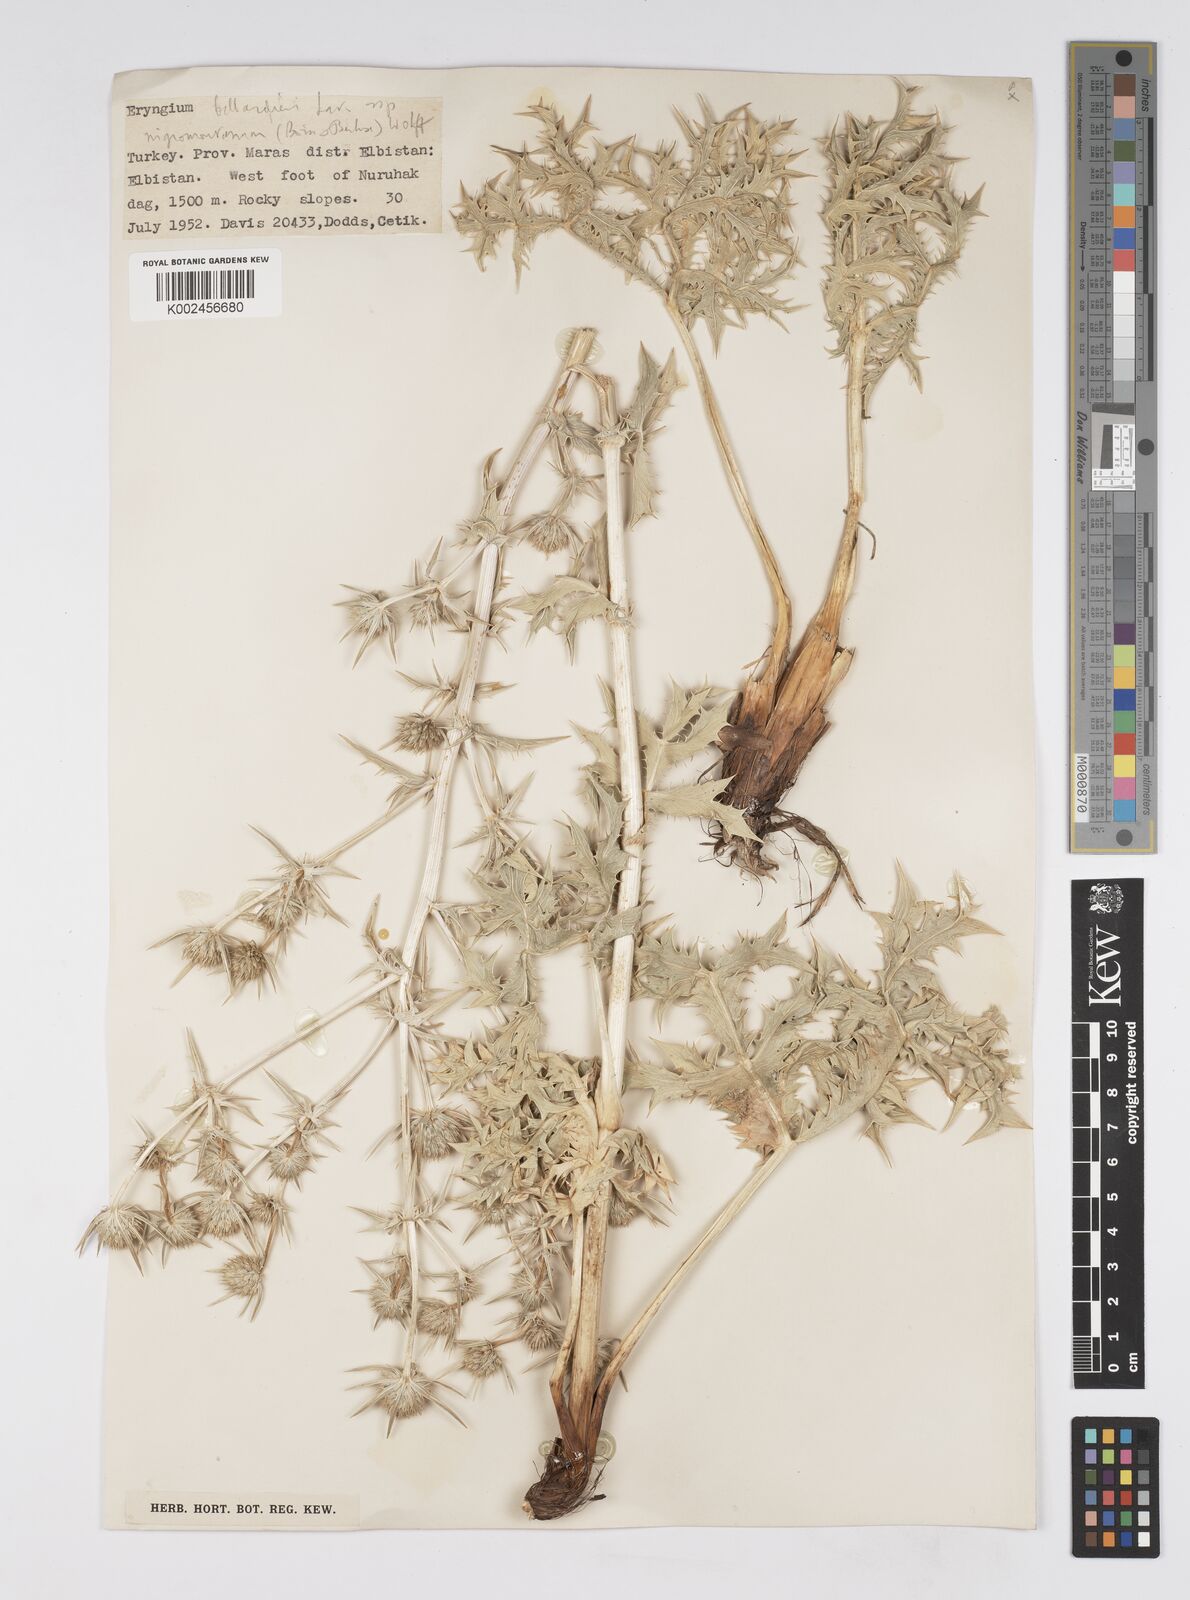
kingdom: Plantae
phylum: Tracheophyta
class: Magnoliopsida
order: Apiales
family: Apiaceae
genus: Eryngium
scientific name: Eryngium billardierei
